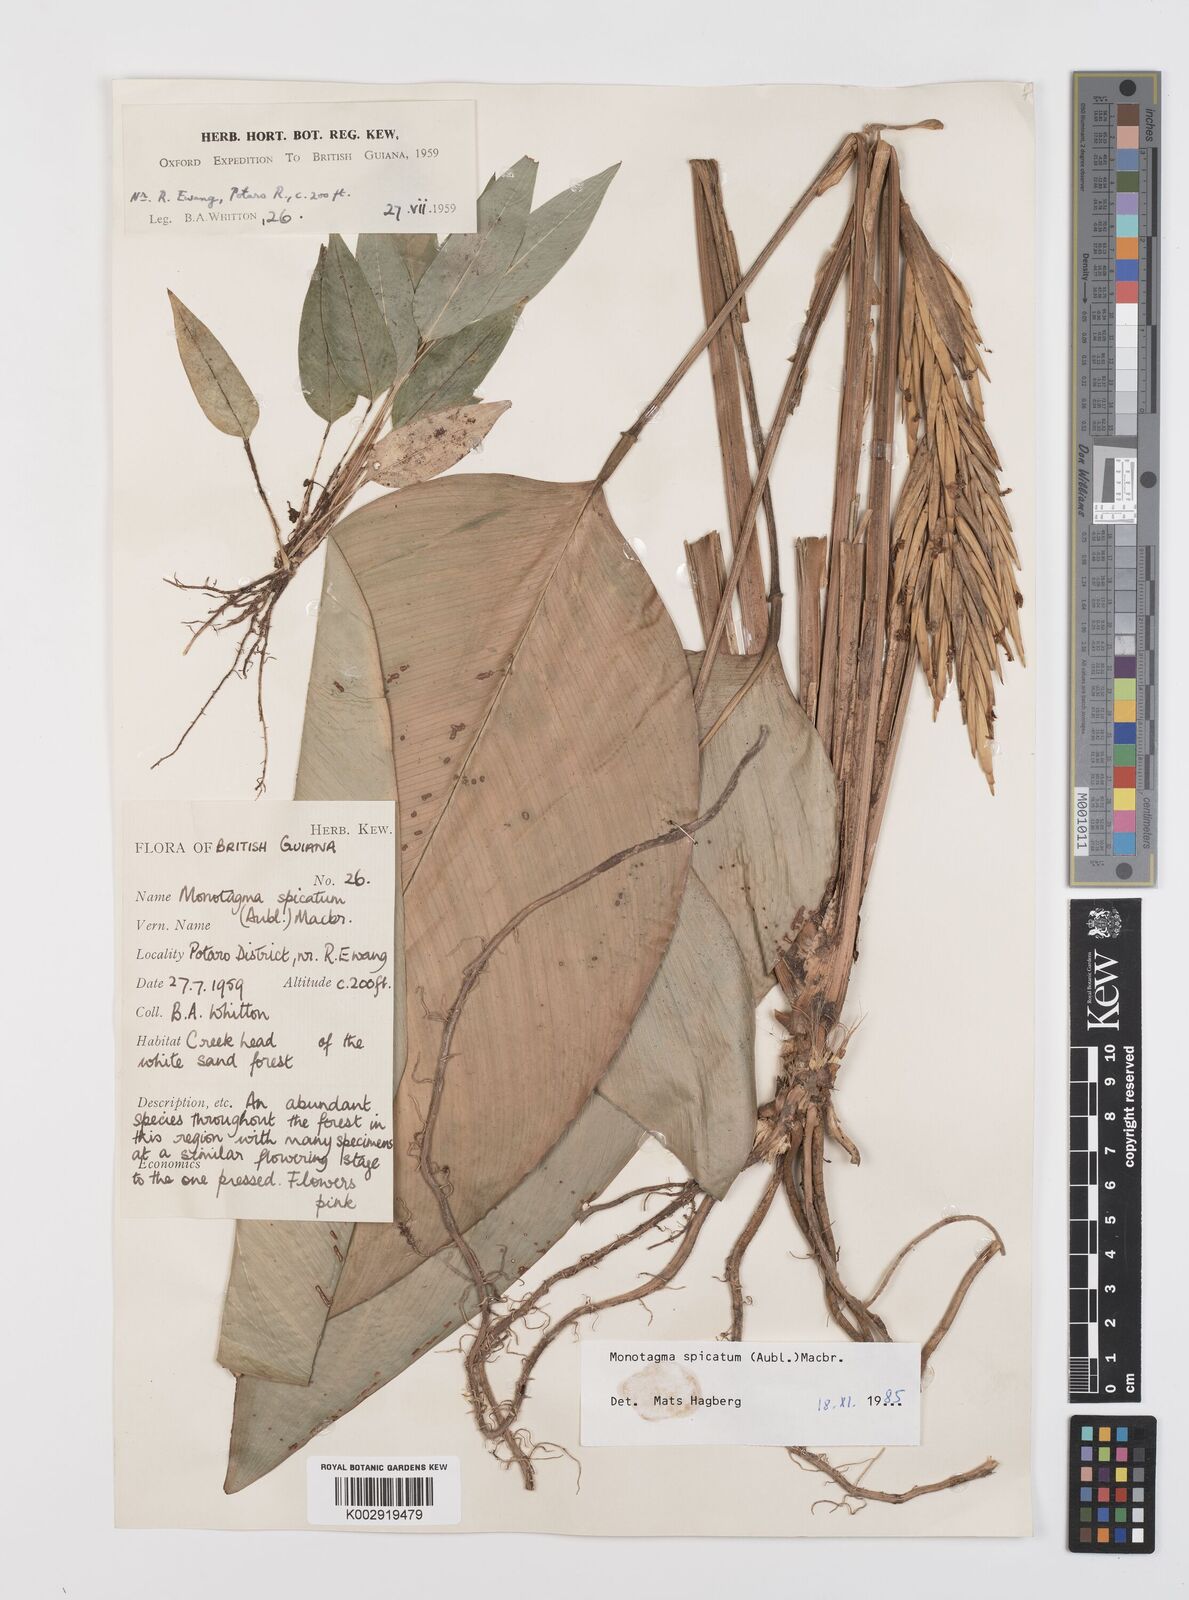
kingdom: Plantae
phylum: Tracheophyta
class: Liliopsida
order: Zingiberales
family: Marantaceae
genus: Monotagma
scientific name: Monotagma spicatum
